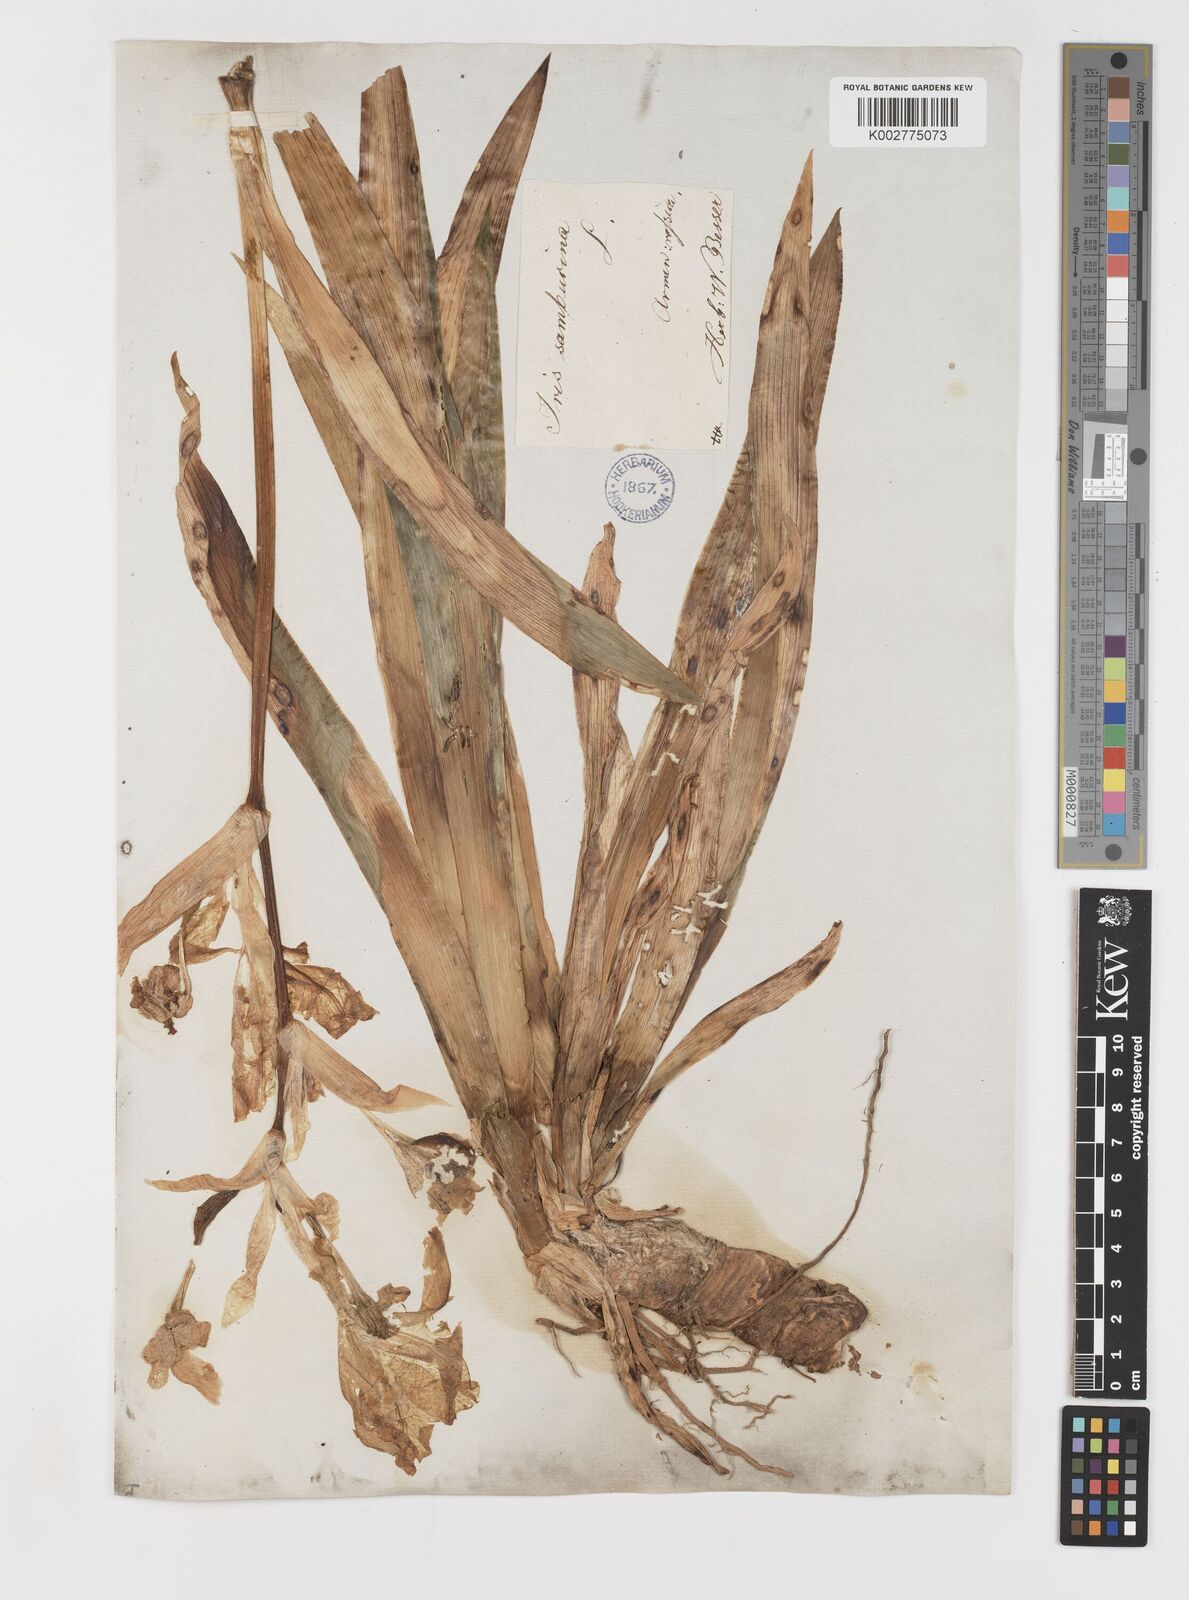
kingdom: Plantae
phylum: Tracheophyta
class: Liliopsida
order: Asparagales
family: Iridaceae
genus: Iris
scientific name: Iris germanica
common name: German iris
